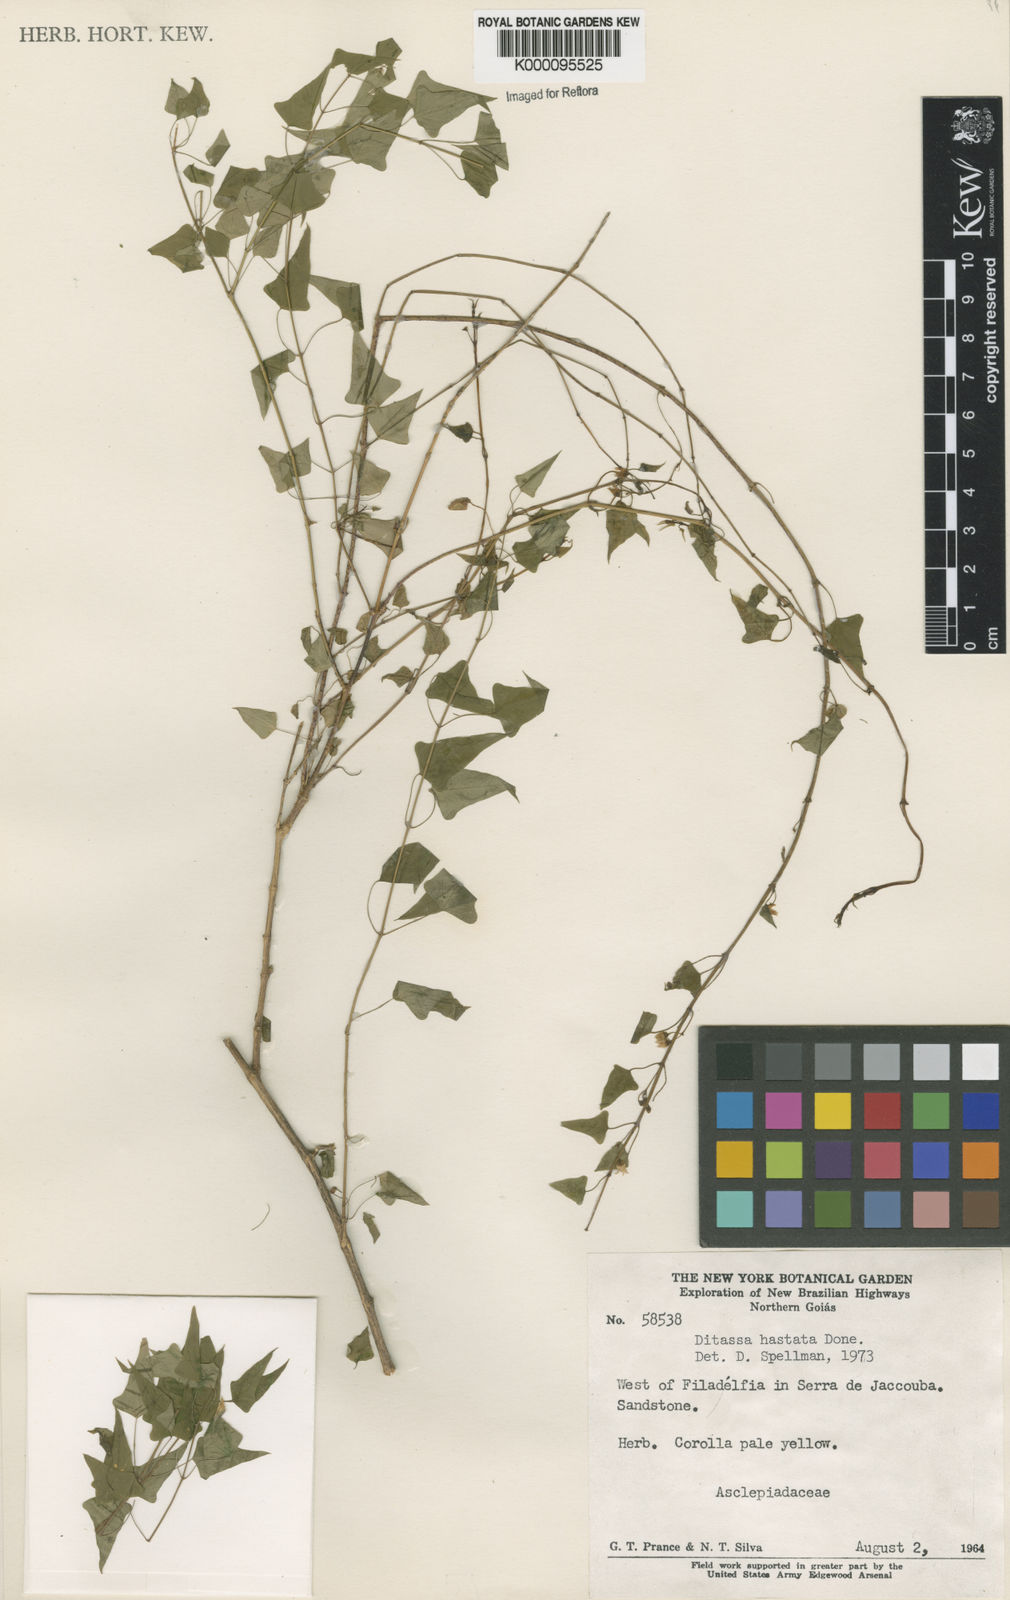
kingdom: Plantae
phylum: Tracheophyta
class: Magnoliopsida
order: Gentianales
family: Apocynaceae
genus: Ditassa
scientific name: Ditassa hastata
